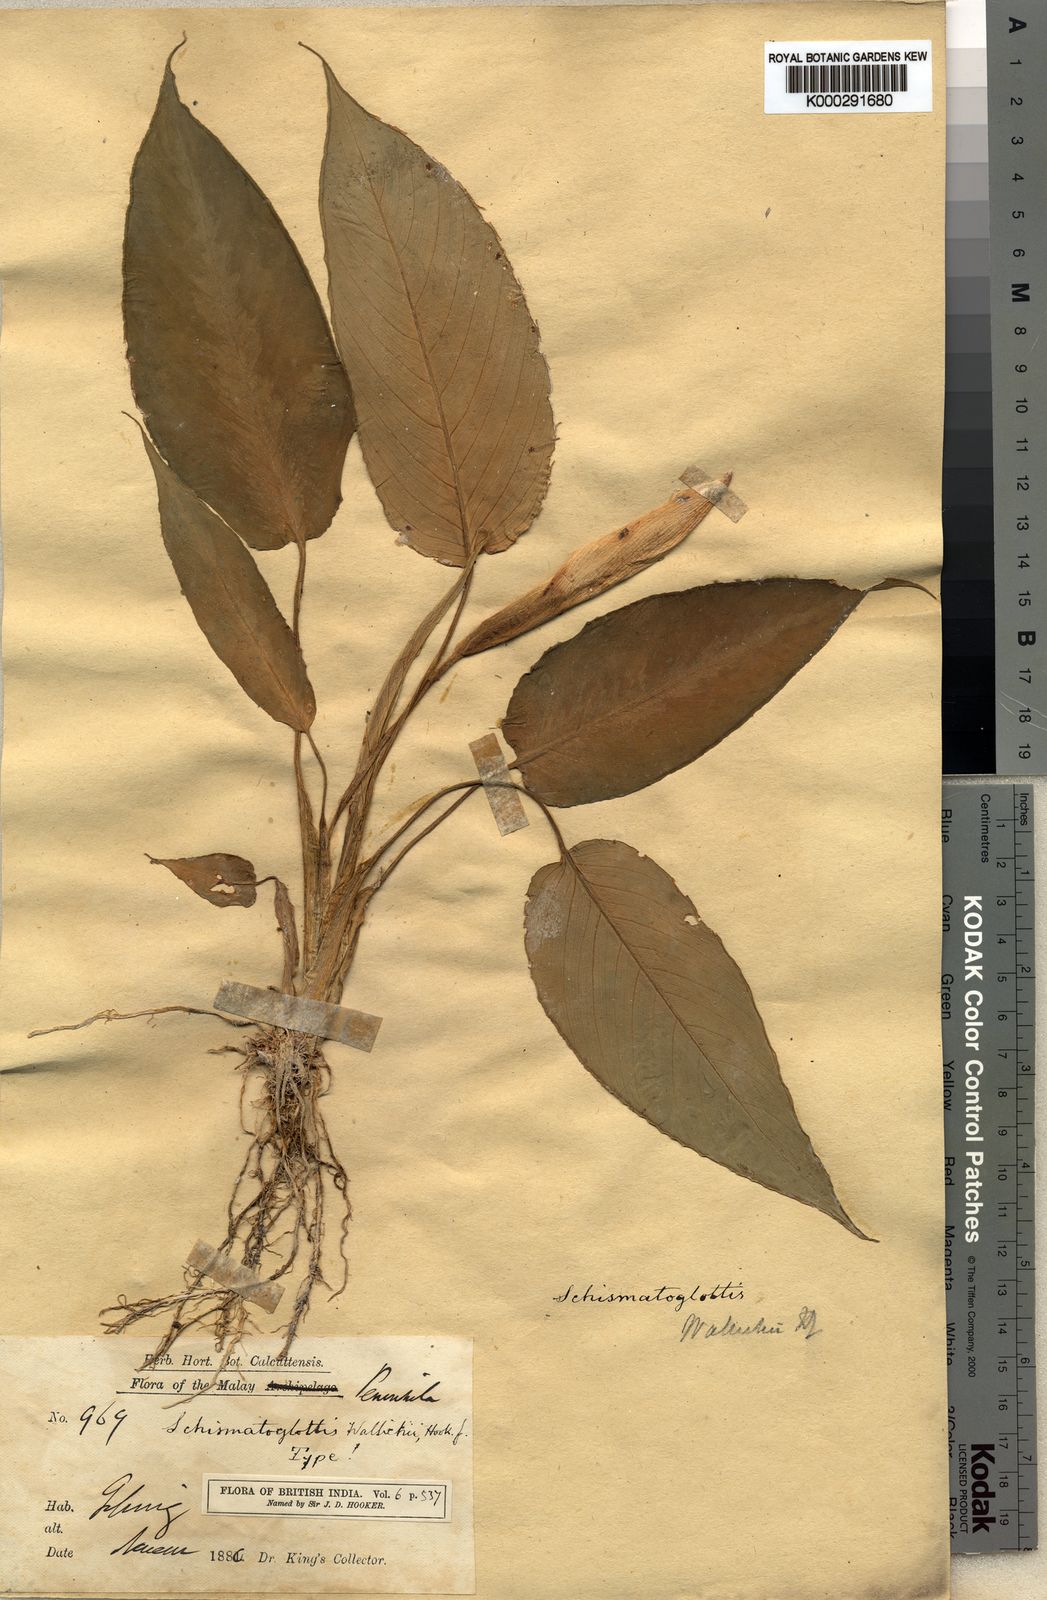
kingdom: Plantae
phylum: Tracheophyta
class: Liliopsida
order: Alismatales
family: Araceae
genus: Schismatoglottis
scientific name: Schismatoglottis wallichii
